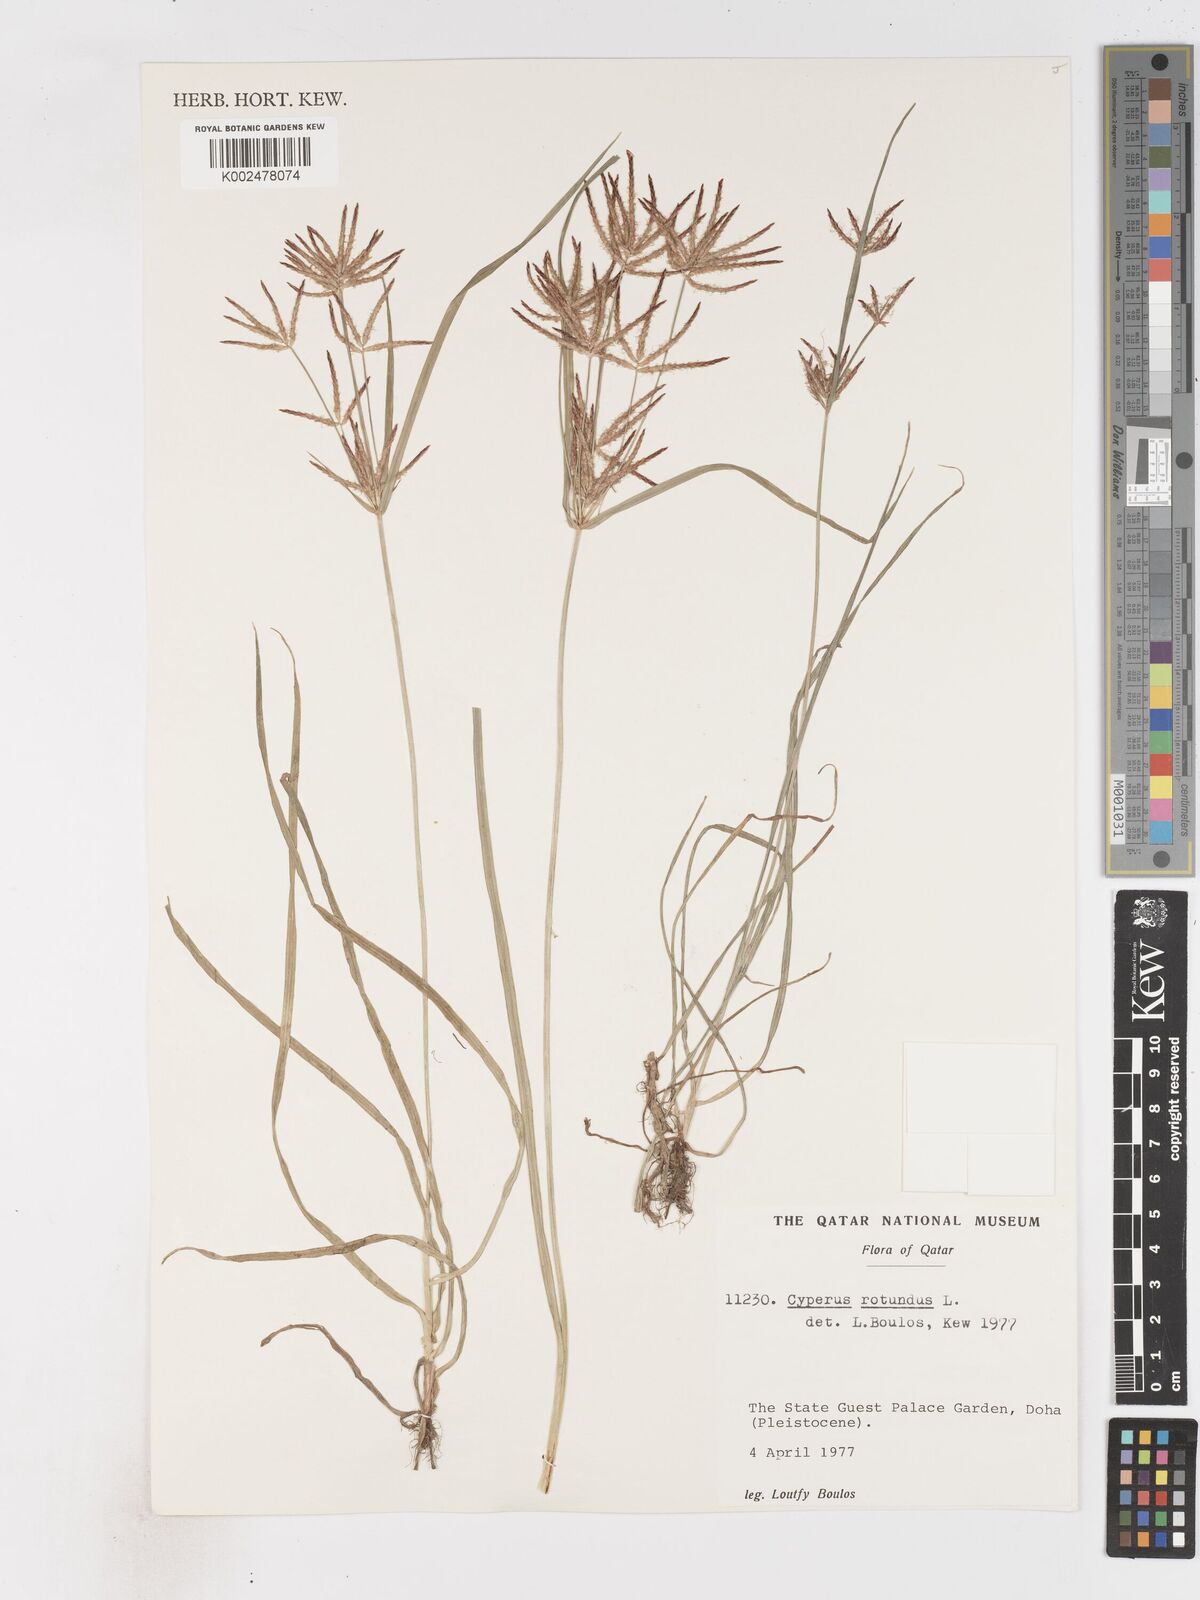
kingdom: Plantae
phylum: Tracheophyta
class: Liliopsida
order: Poales
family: Cyperaceae
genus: Cyperus
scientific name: Cyperus rotundus
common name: Nutgrass
